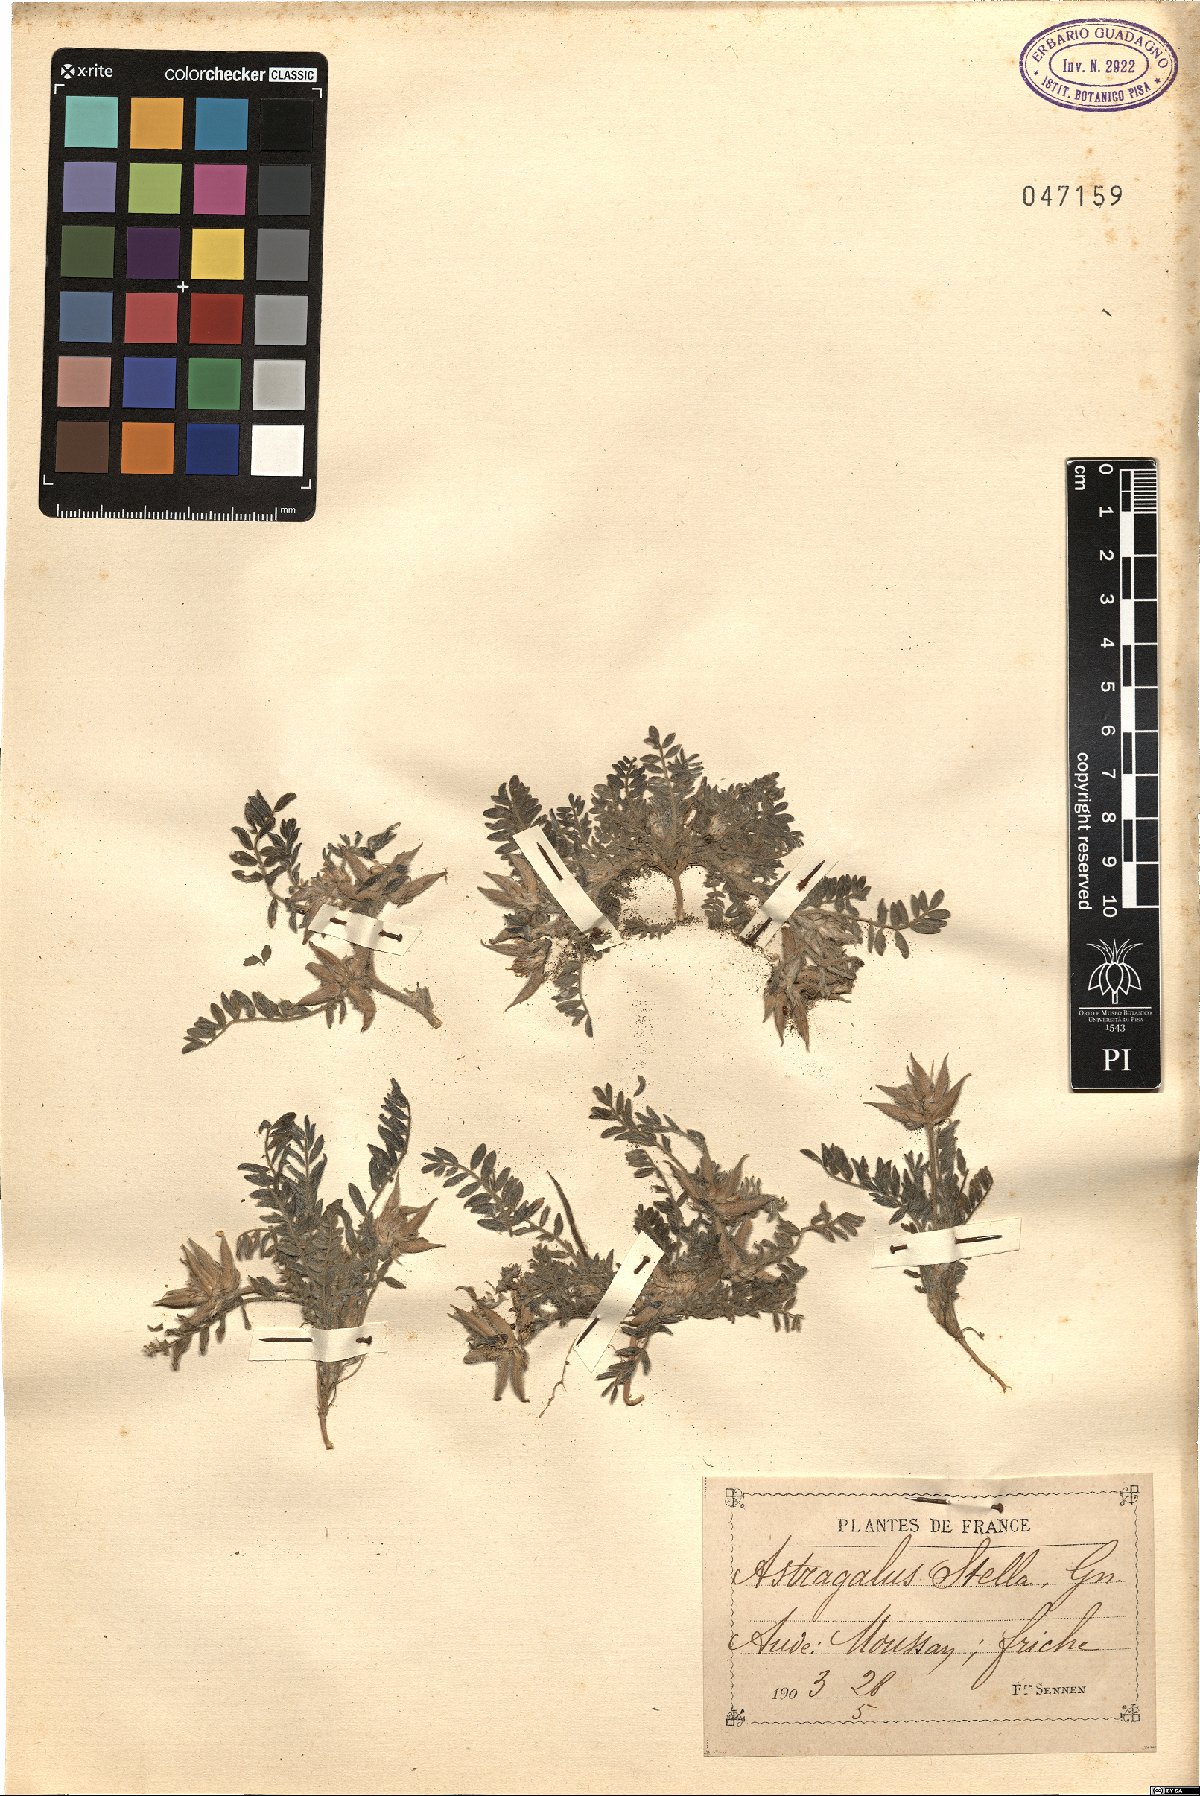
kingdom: Plantae
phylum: Tracheophyta
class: Magnoliopsida
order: Fabales
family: Fabaceae
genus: Astragalus
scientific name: Astragalus stella
